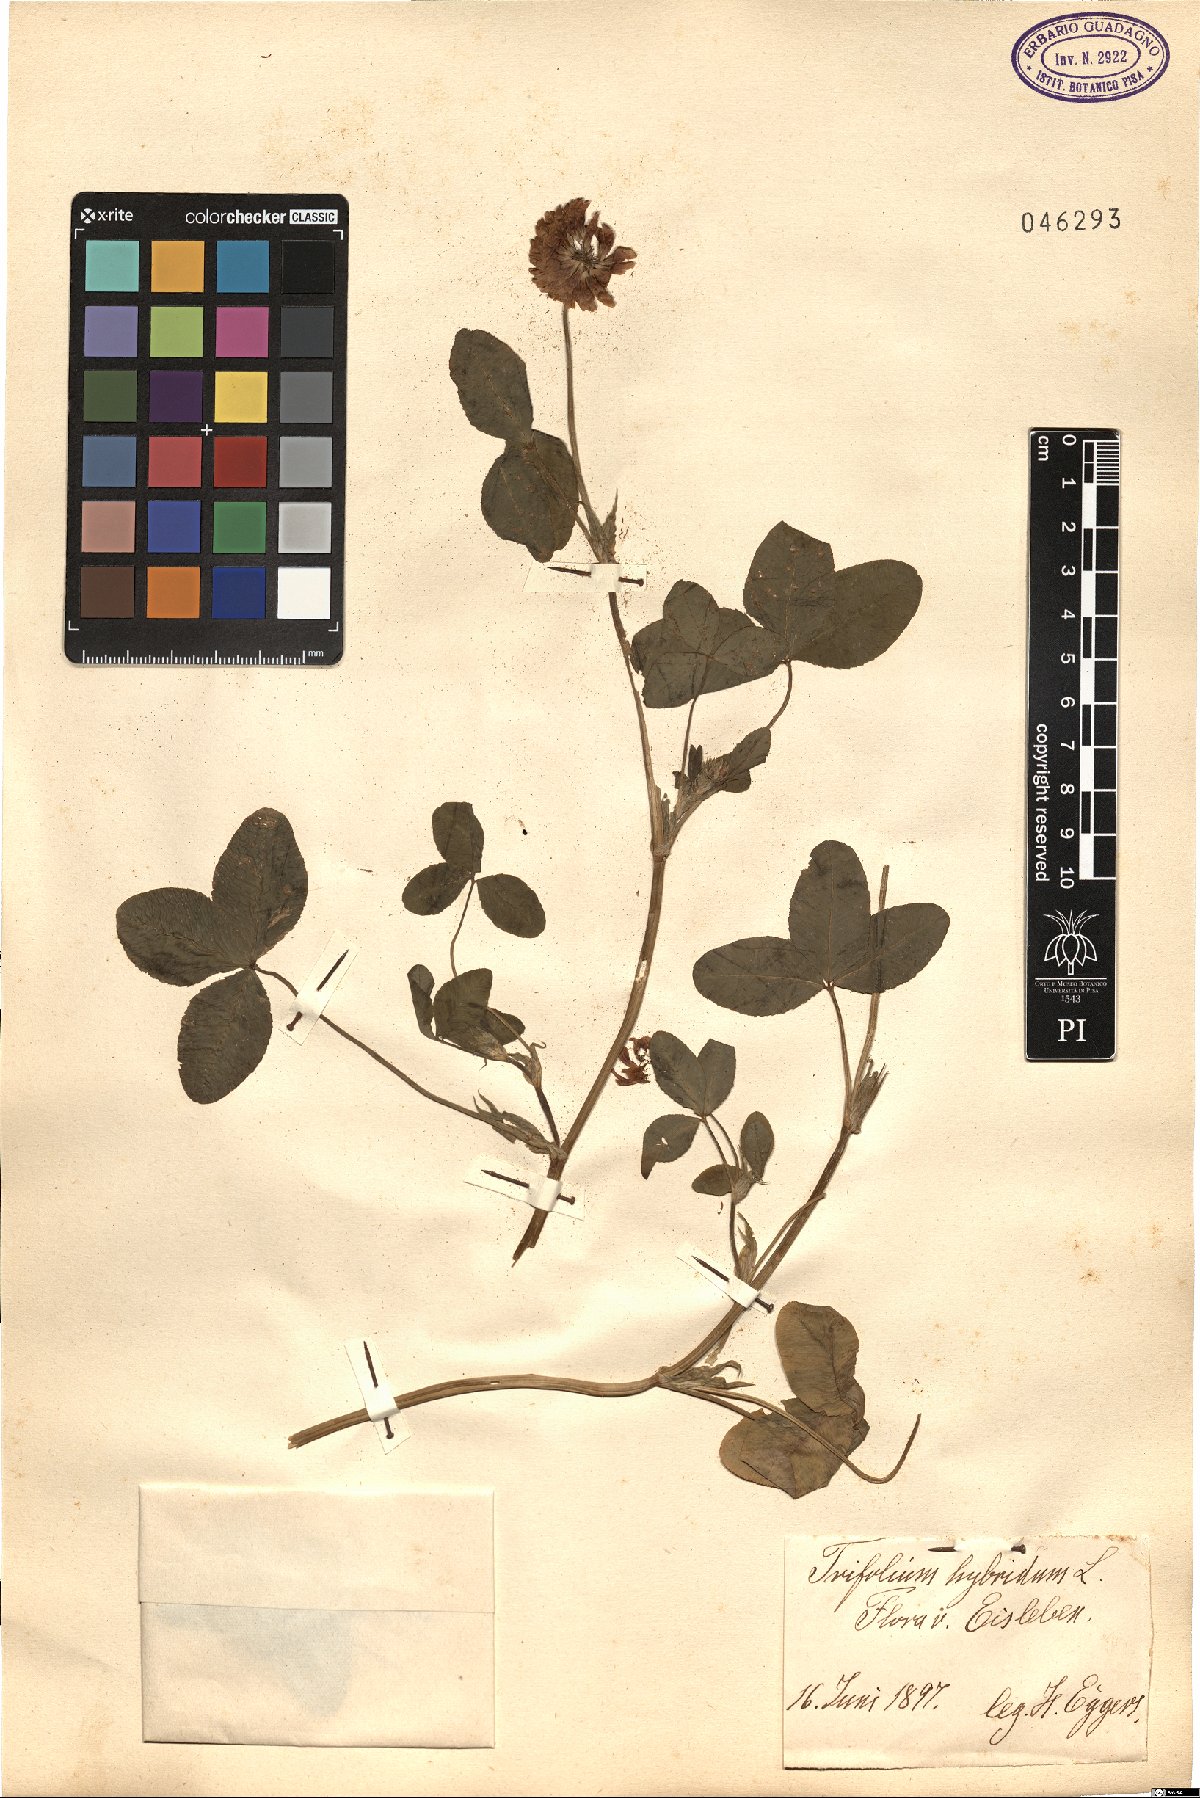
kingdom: Plantae
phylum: Tracheophyta
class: Magnoliopsida
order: Fabales
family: Fabaceae
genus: Trifolium
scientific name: Trifolium hybridum
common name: Alsike clover
